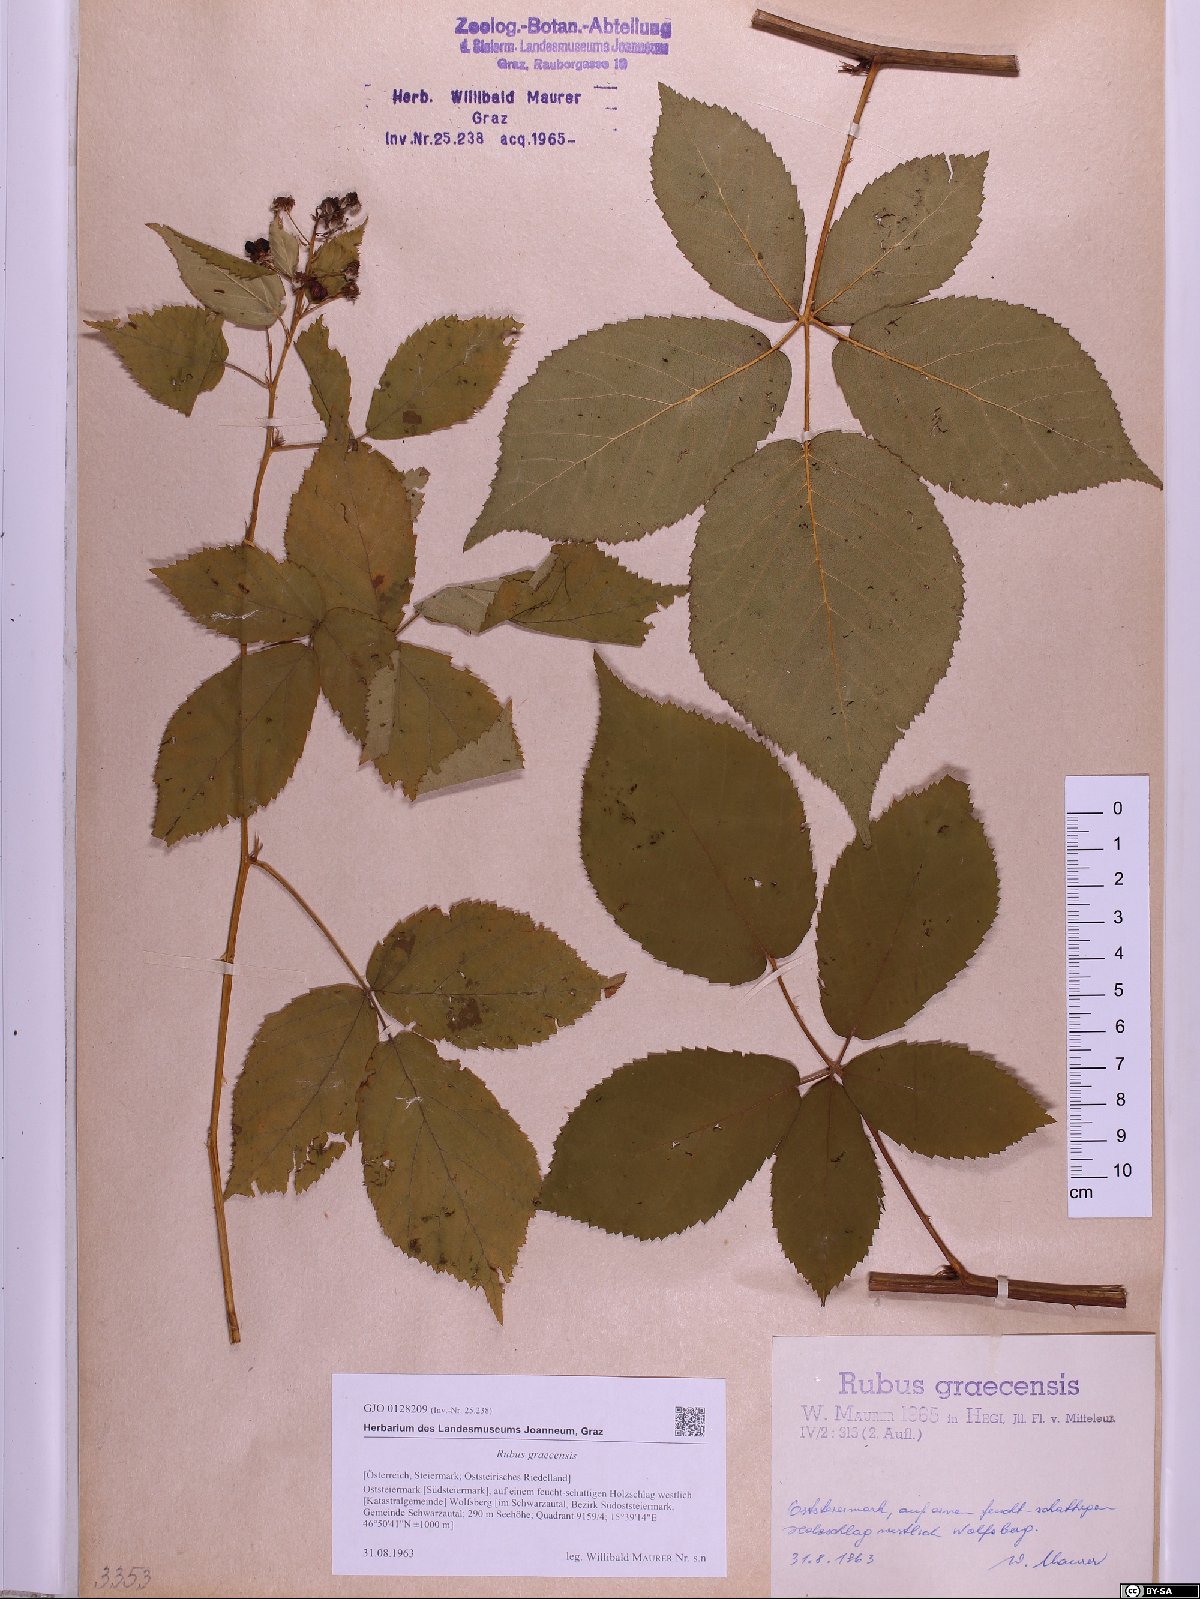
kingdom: Plantae
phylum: Tracheophyta
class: Magnoliopsida
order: Rosales
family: Rosaceae
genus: Rubus
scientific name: Rubus graecensis
